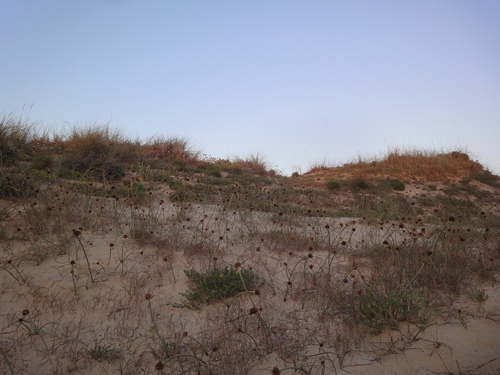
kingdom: Plantae
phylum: Tracheophyta
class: Liliopsida
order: Poales
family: Cyperaceae
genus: Cyperus
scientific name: Cyperus capitatus
